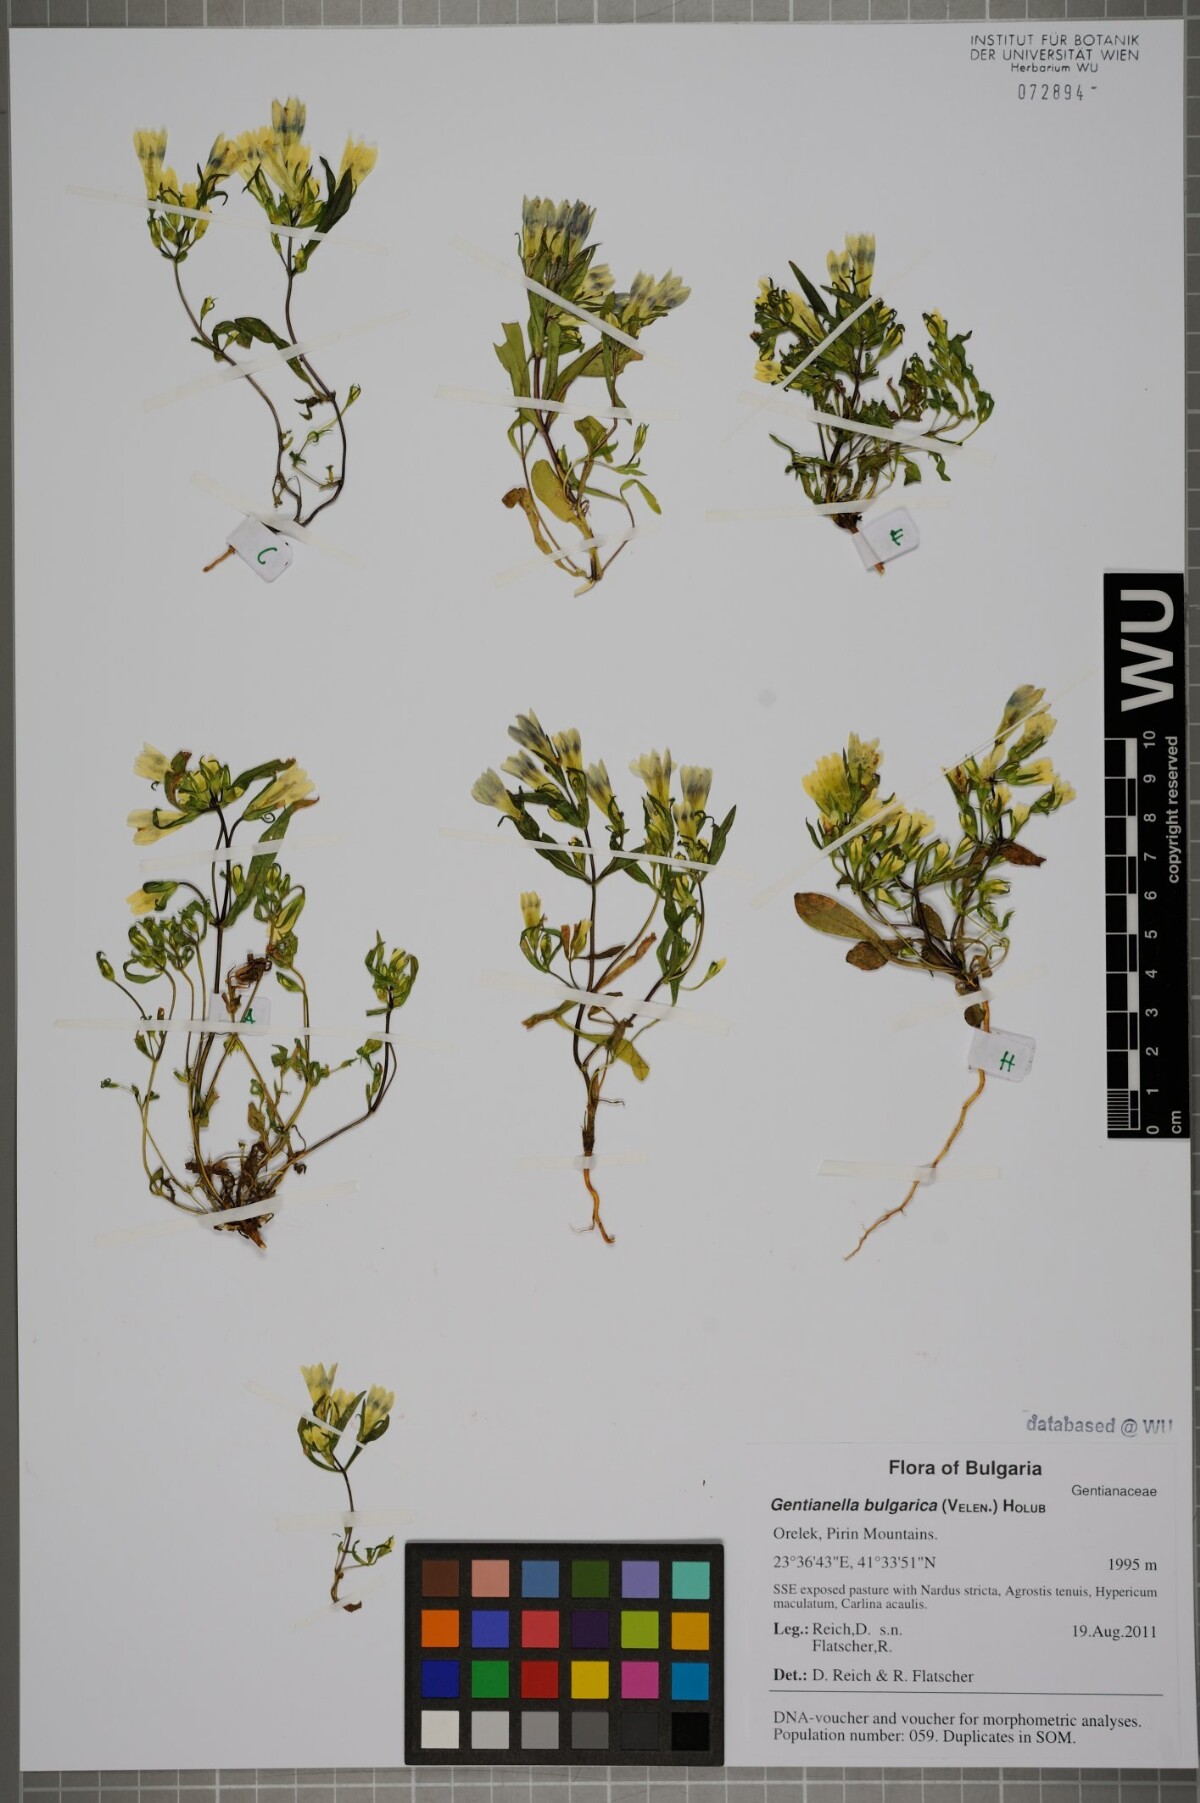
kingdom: Plantae
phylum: Tracheophyta
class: Magnoliopsida
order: Gentianales
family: Gentianaceae
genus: Gentianella
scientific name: Gentianella bulgarica
